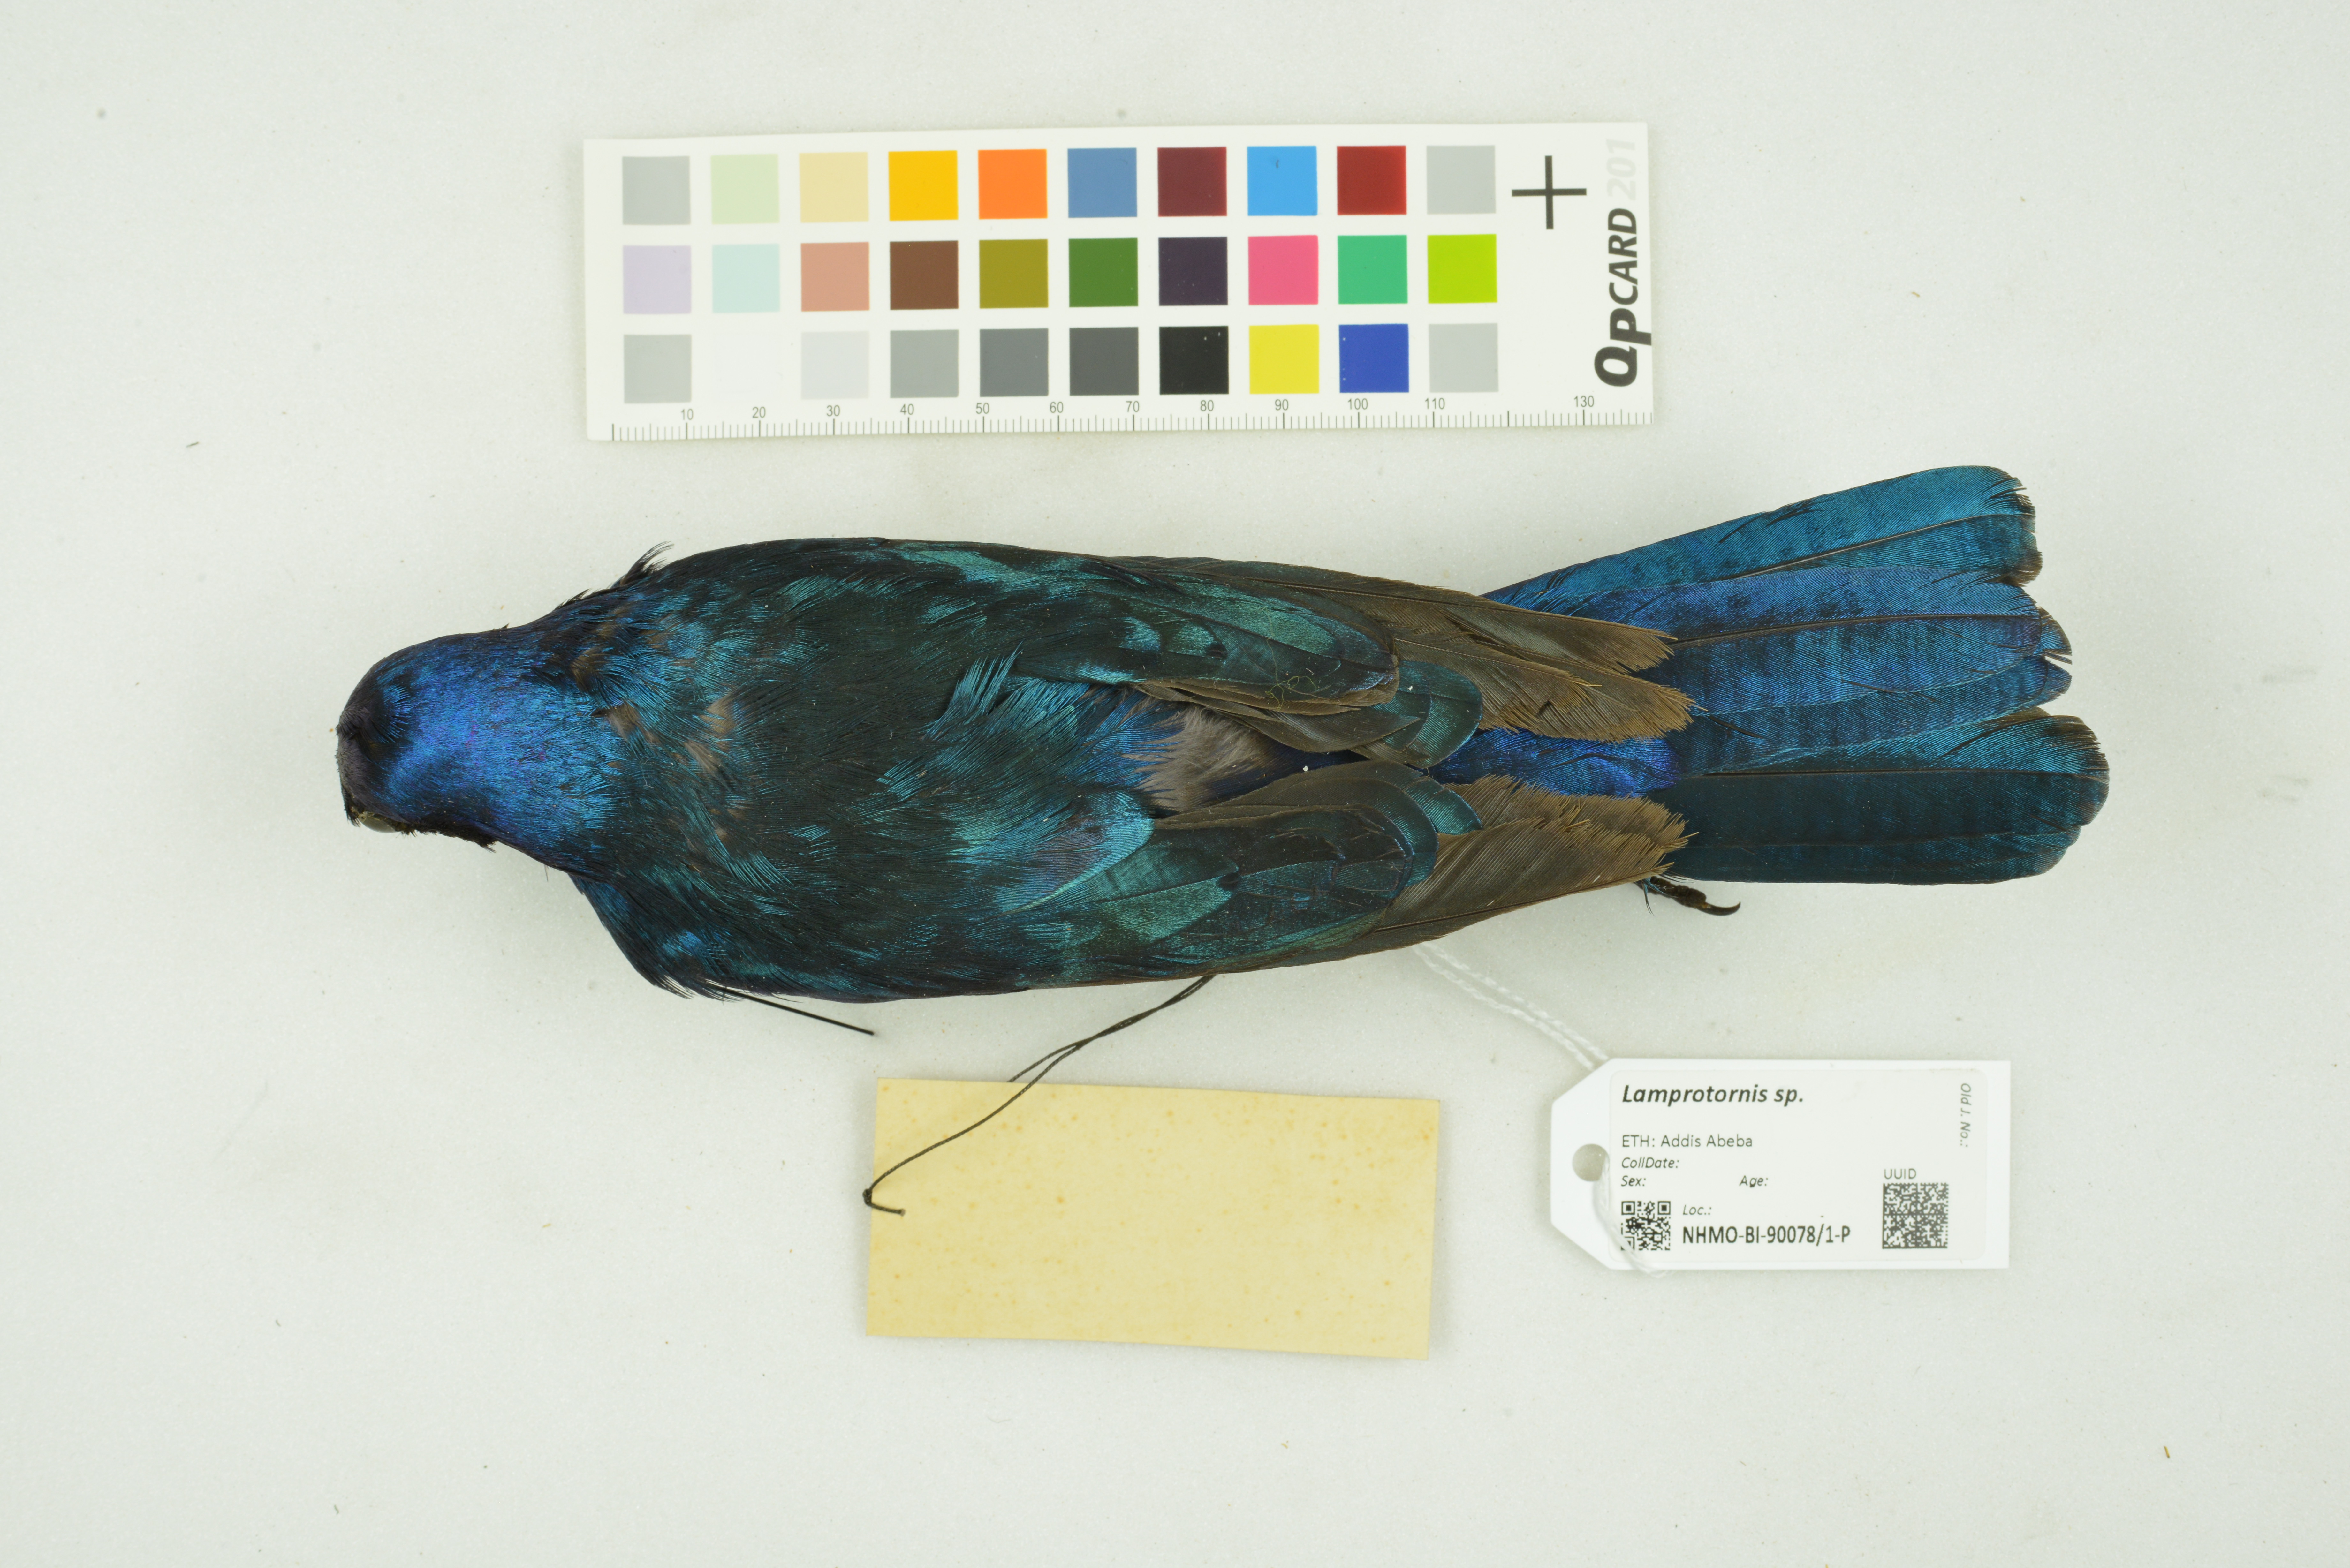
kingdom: Animalia
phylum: Chordata
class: Aves
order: Passeriformes
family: Sturnidae
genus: Lamprotornis
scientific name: Lamprotornis
